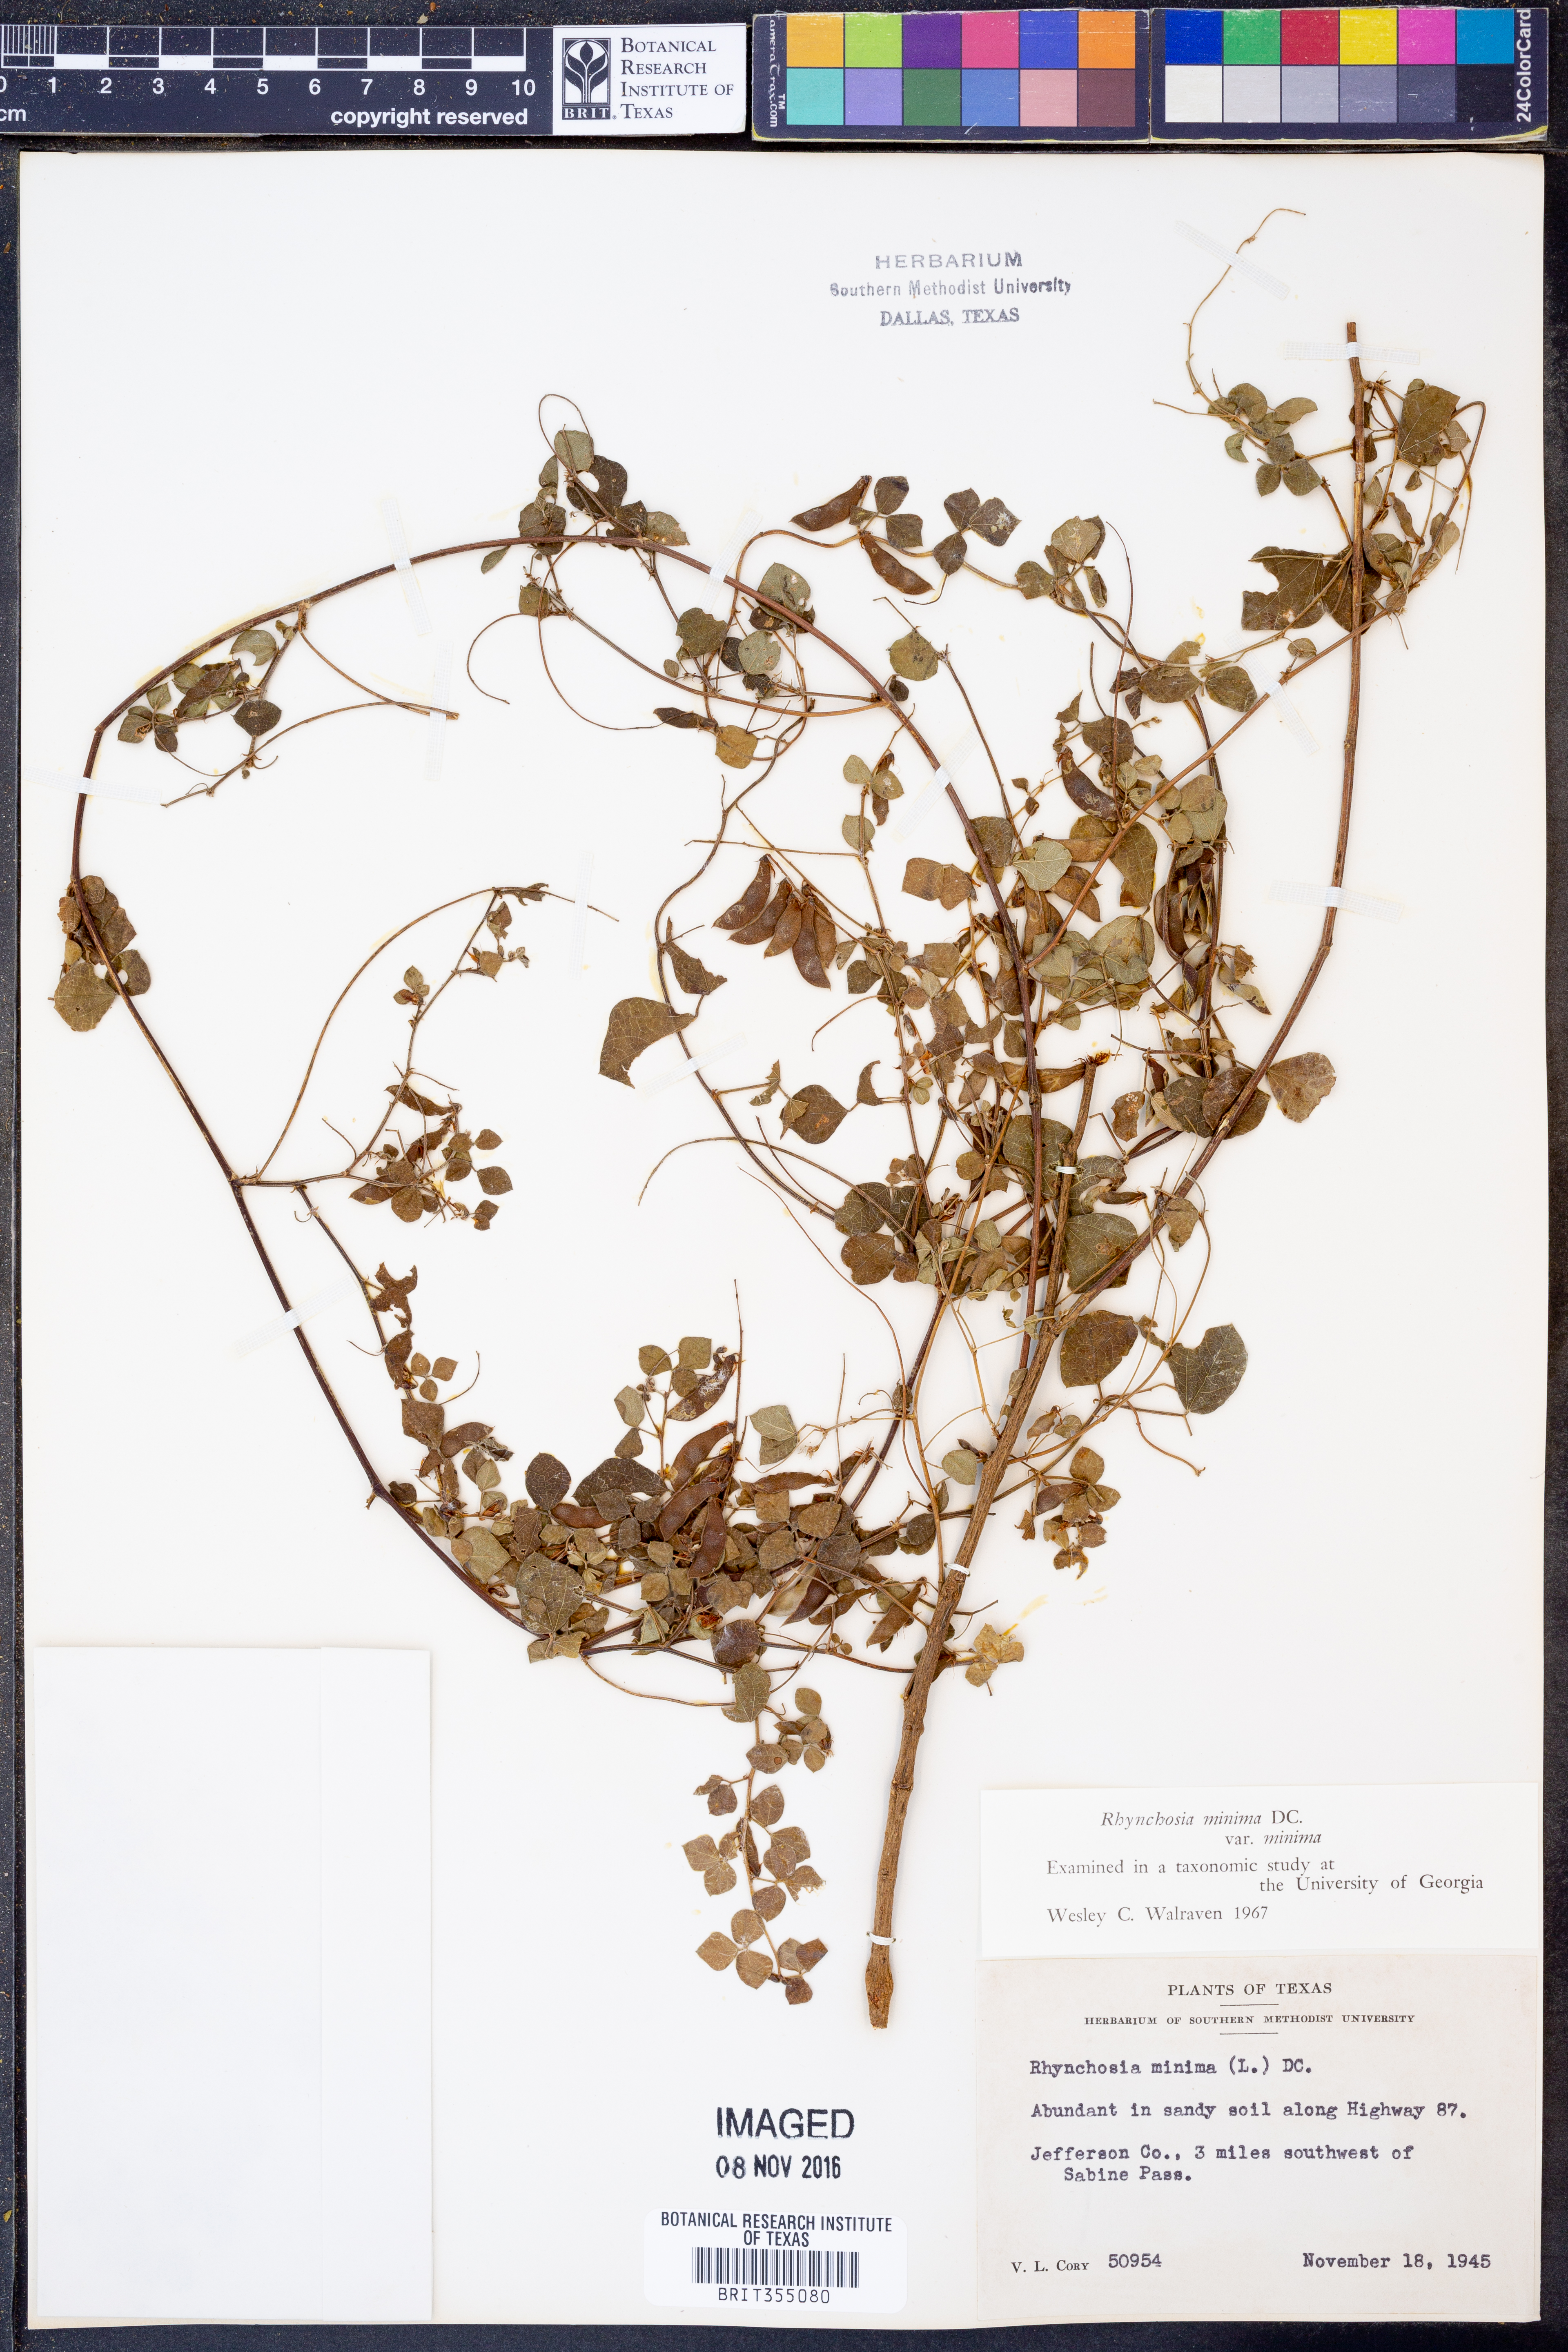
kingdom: Plantae
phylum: Tracheophyta
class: Magnoliopsida
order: Fabales
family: Fabaceae
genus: Rhynchosia
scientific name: Rhynchosia minima
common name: Least snoutbean
